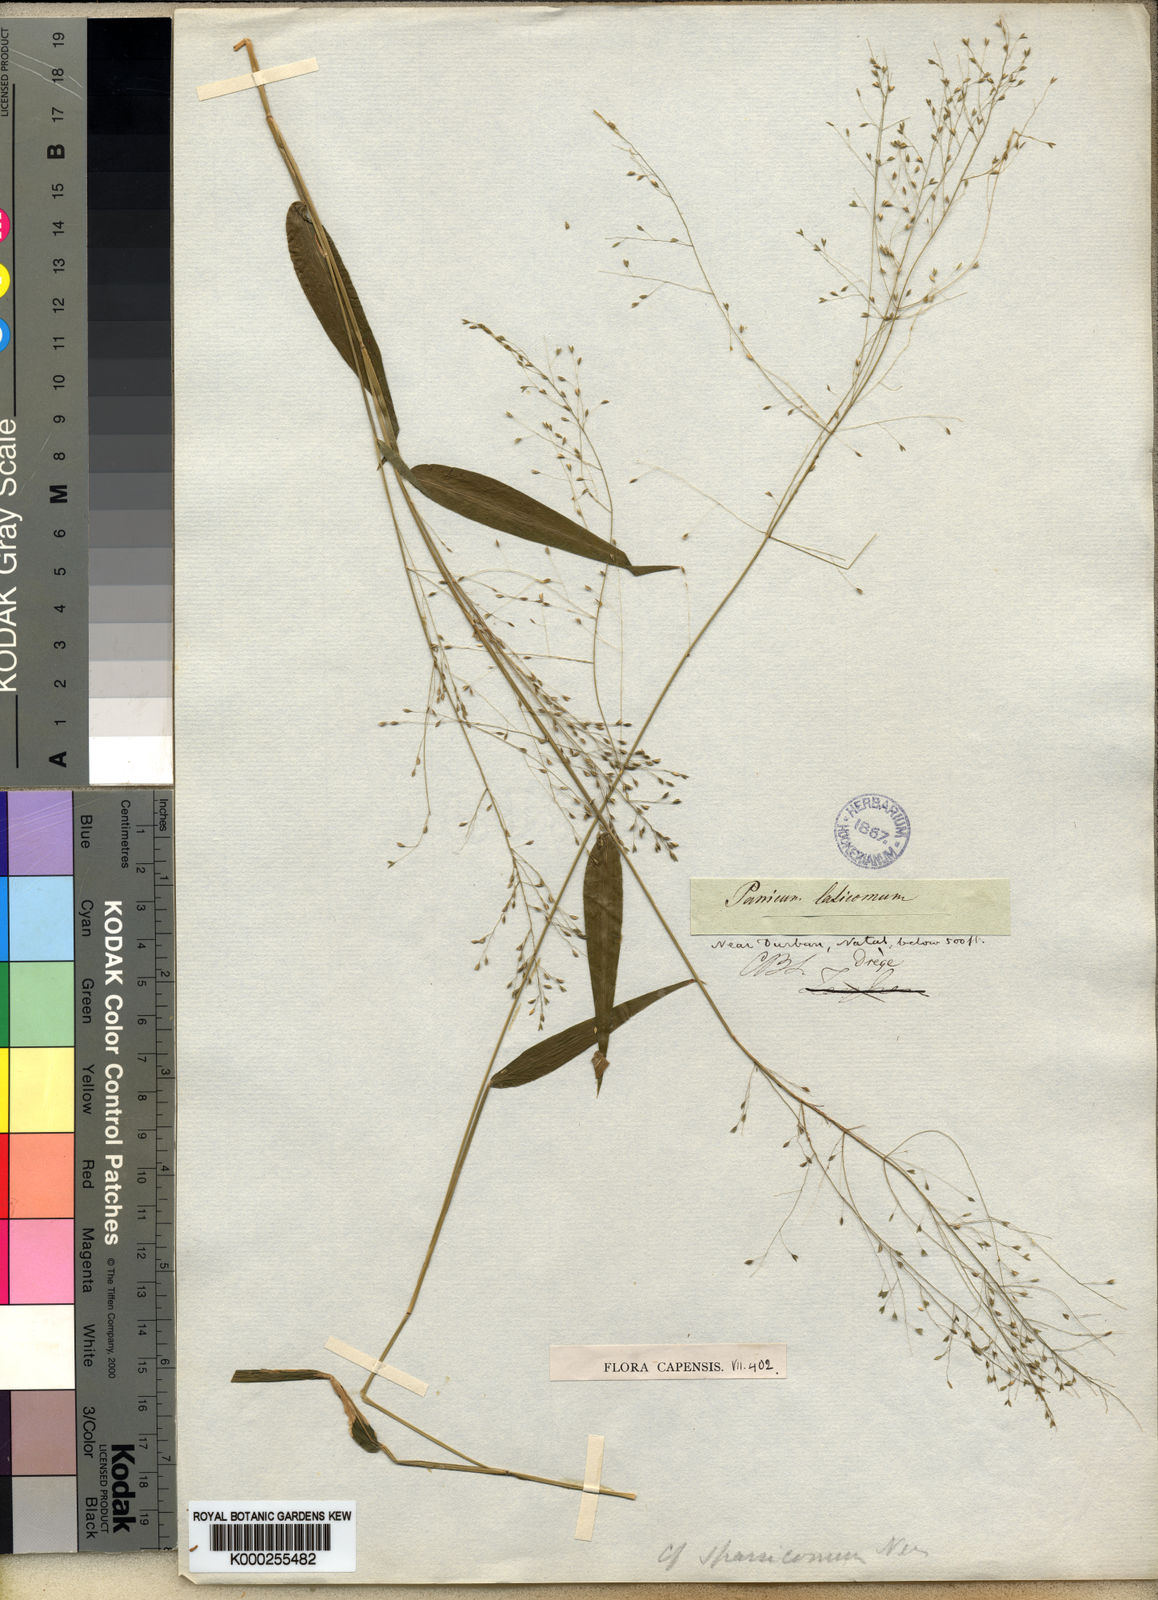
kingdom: Plantae
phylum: Tracheophyta
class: Liliopsida
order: Poales
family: Poaceae
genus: Panicum
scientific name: Panicum laticomum
